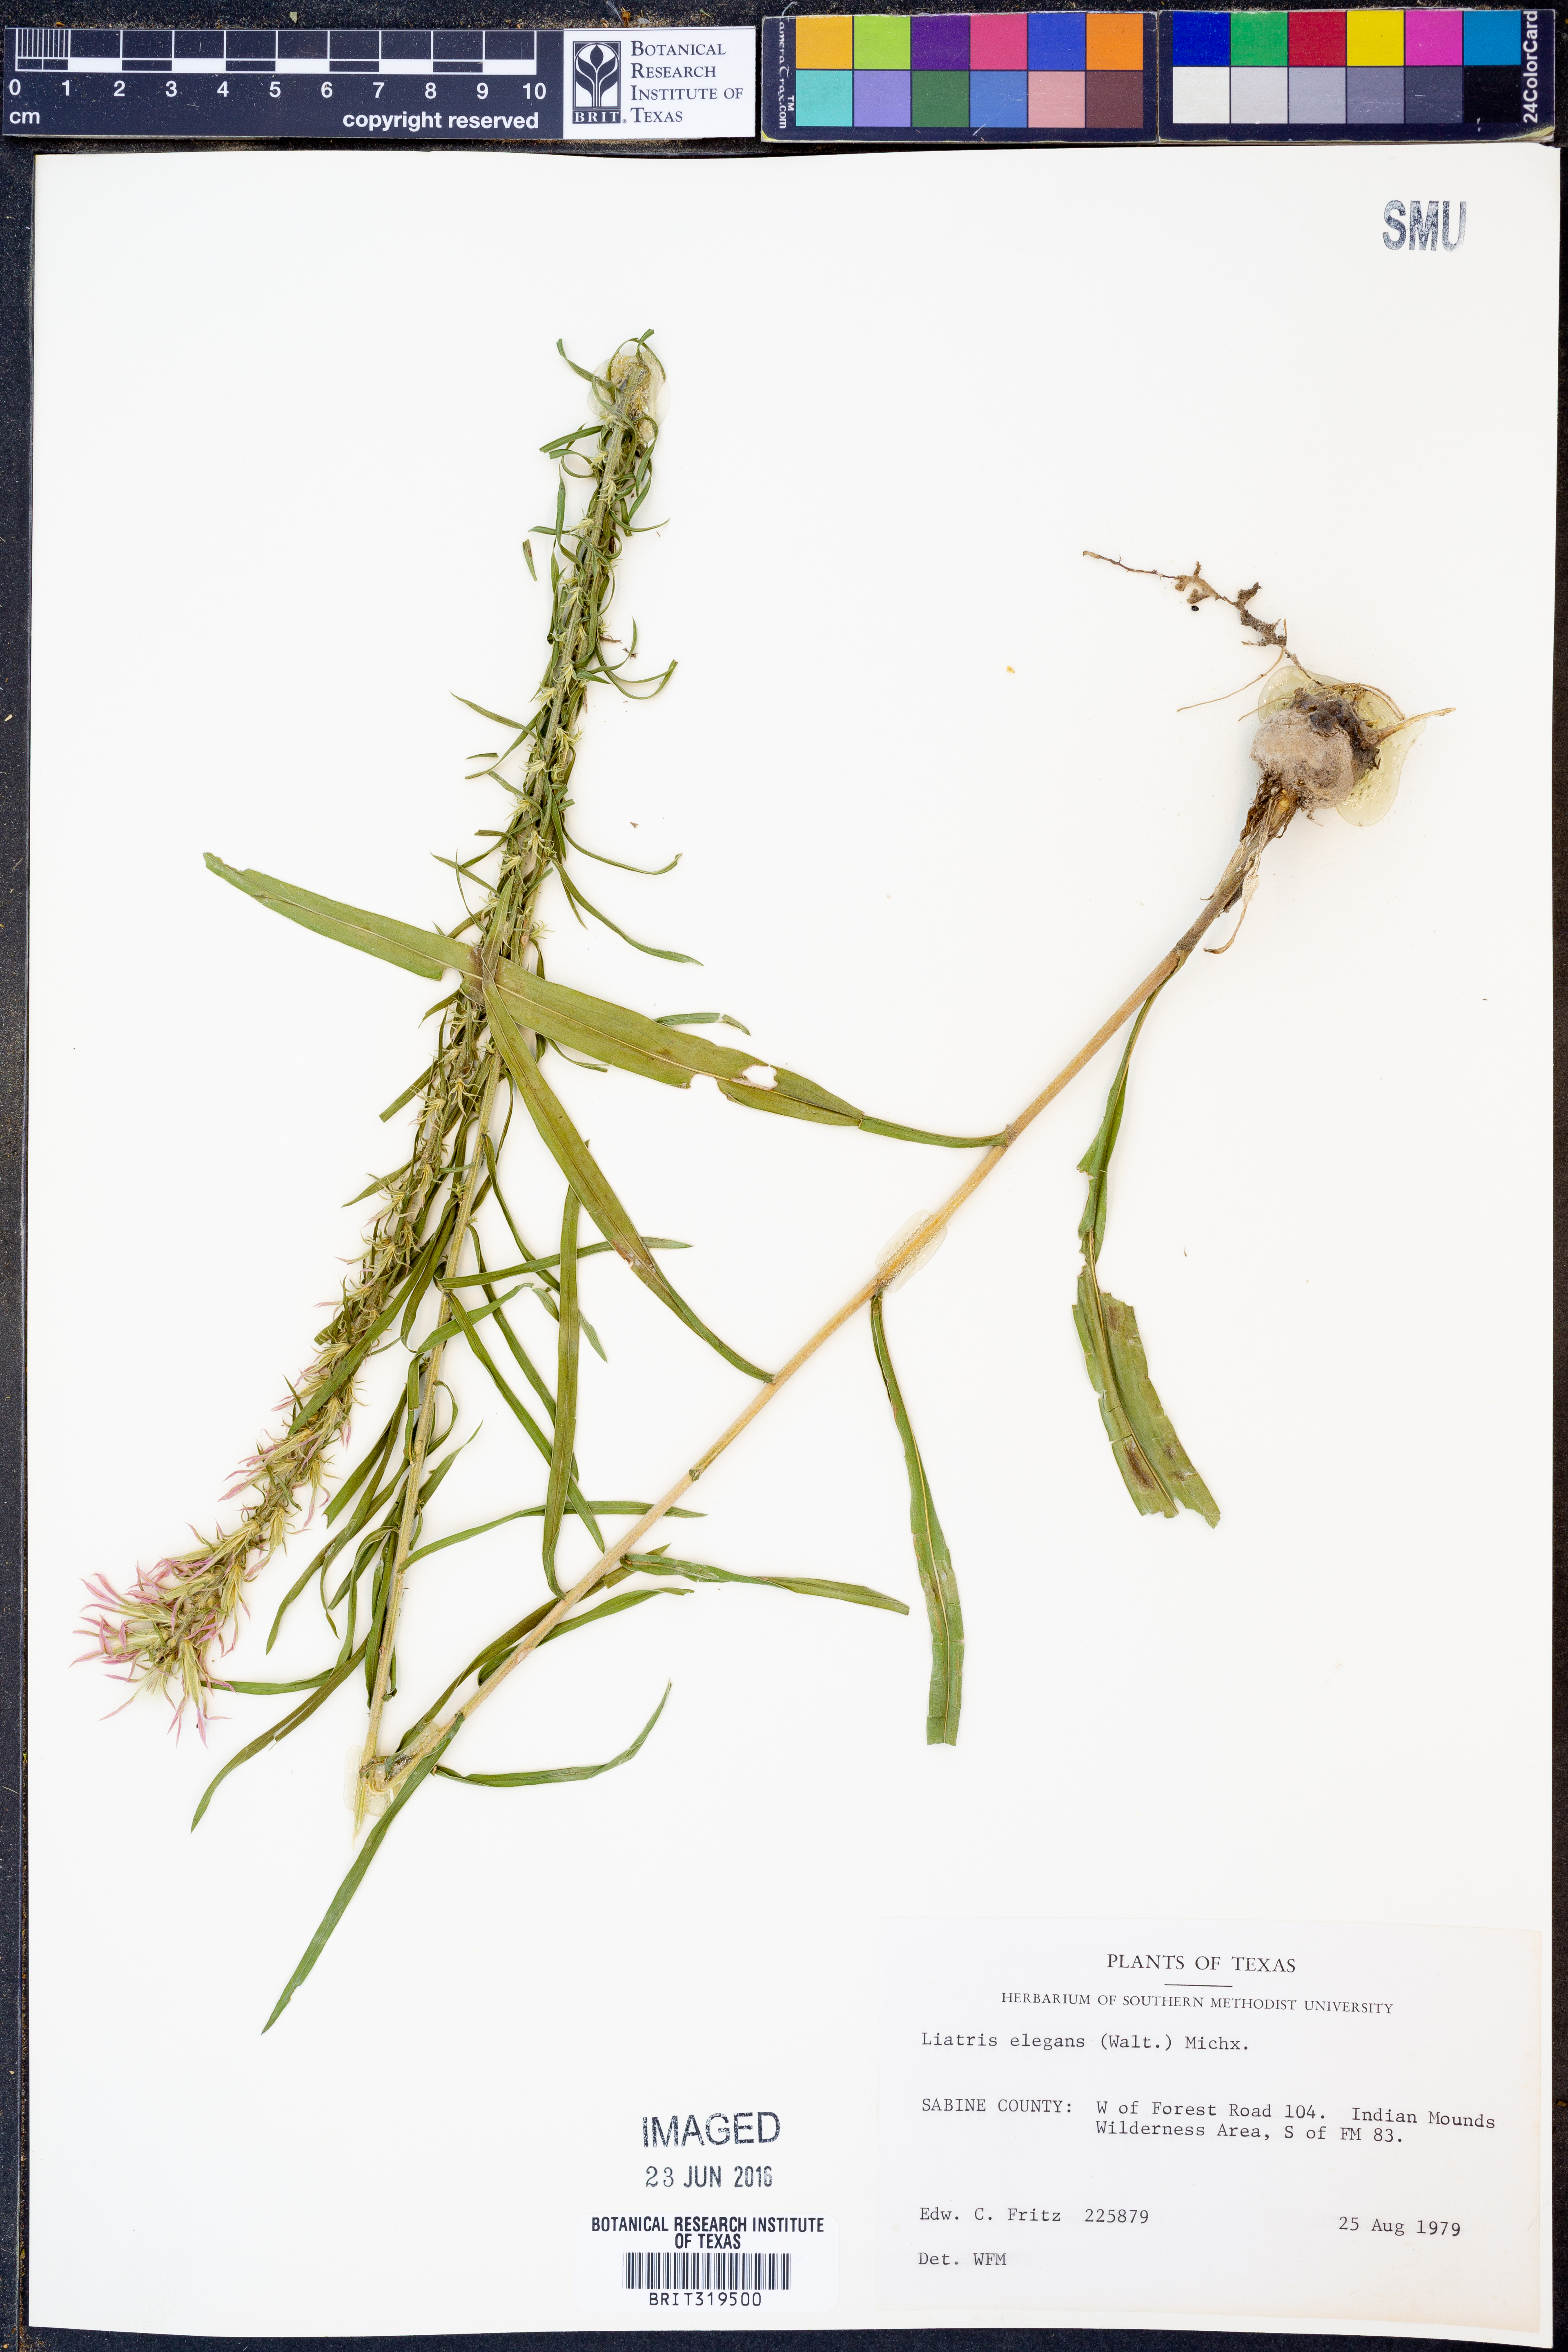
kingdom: Plantae
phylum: Tracheophyta
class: Magnoliopsida
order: Asterales
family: Asteraceae
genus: Liatris
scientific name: Liatris elegans
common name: Pinkscale gayfeather
